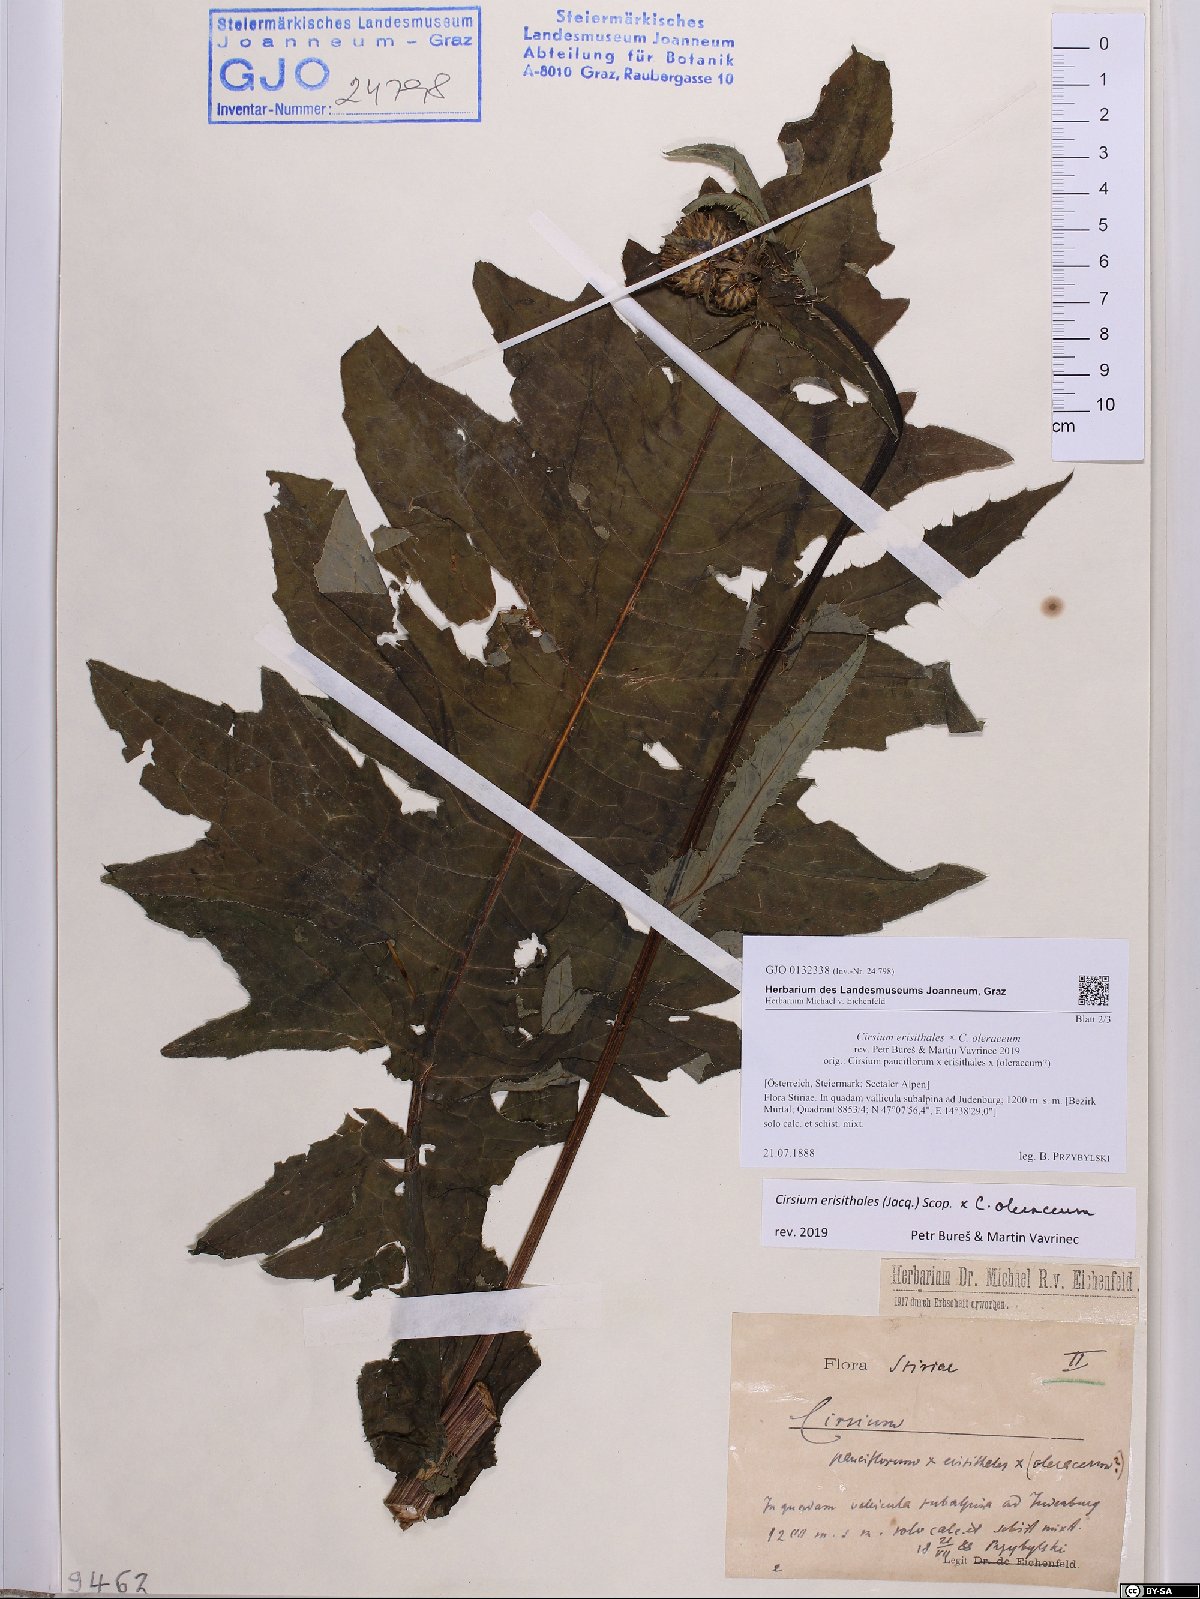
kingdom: Plantae
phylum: Tracheophyta
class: Magnoliopsida
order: Asterales
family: Asteraceae
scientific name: Asteraceae
